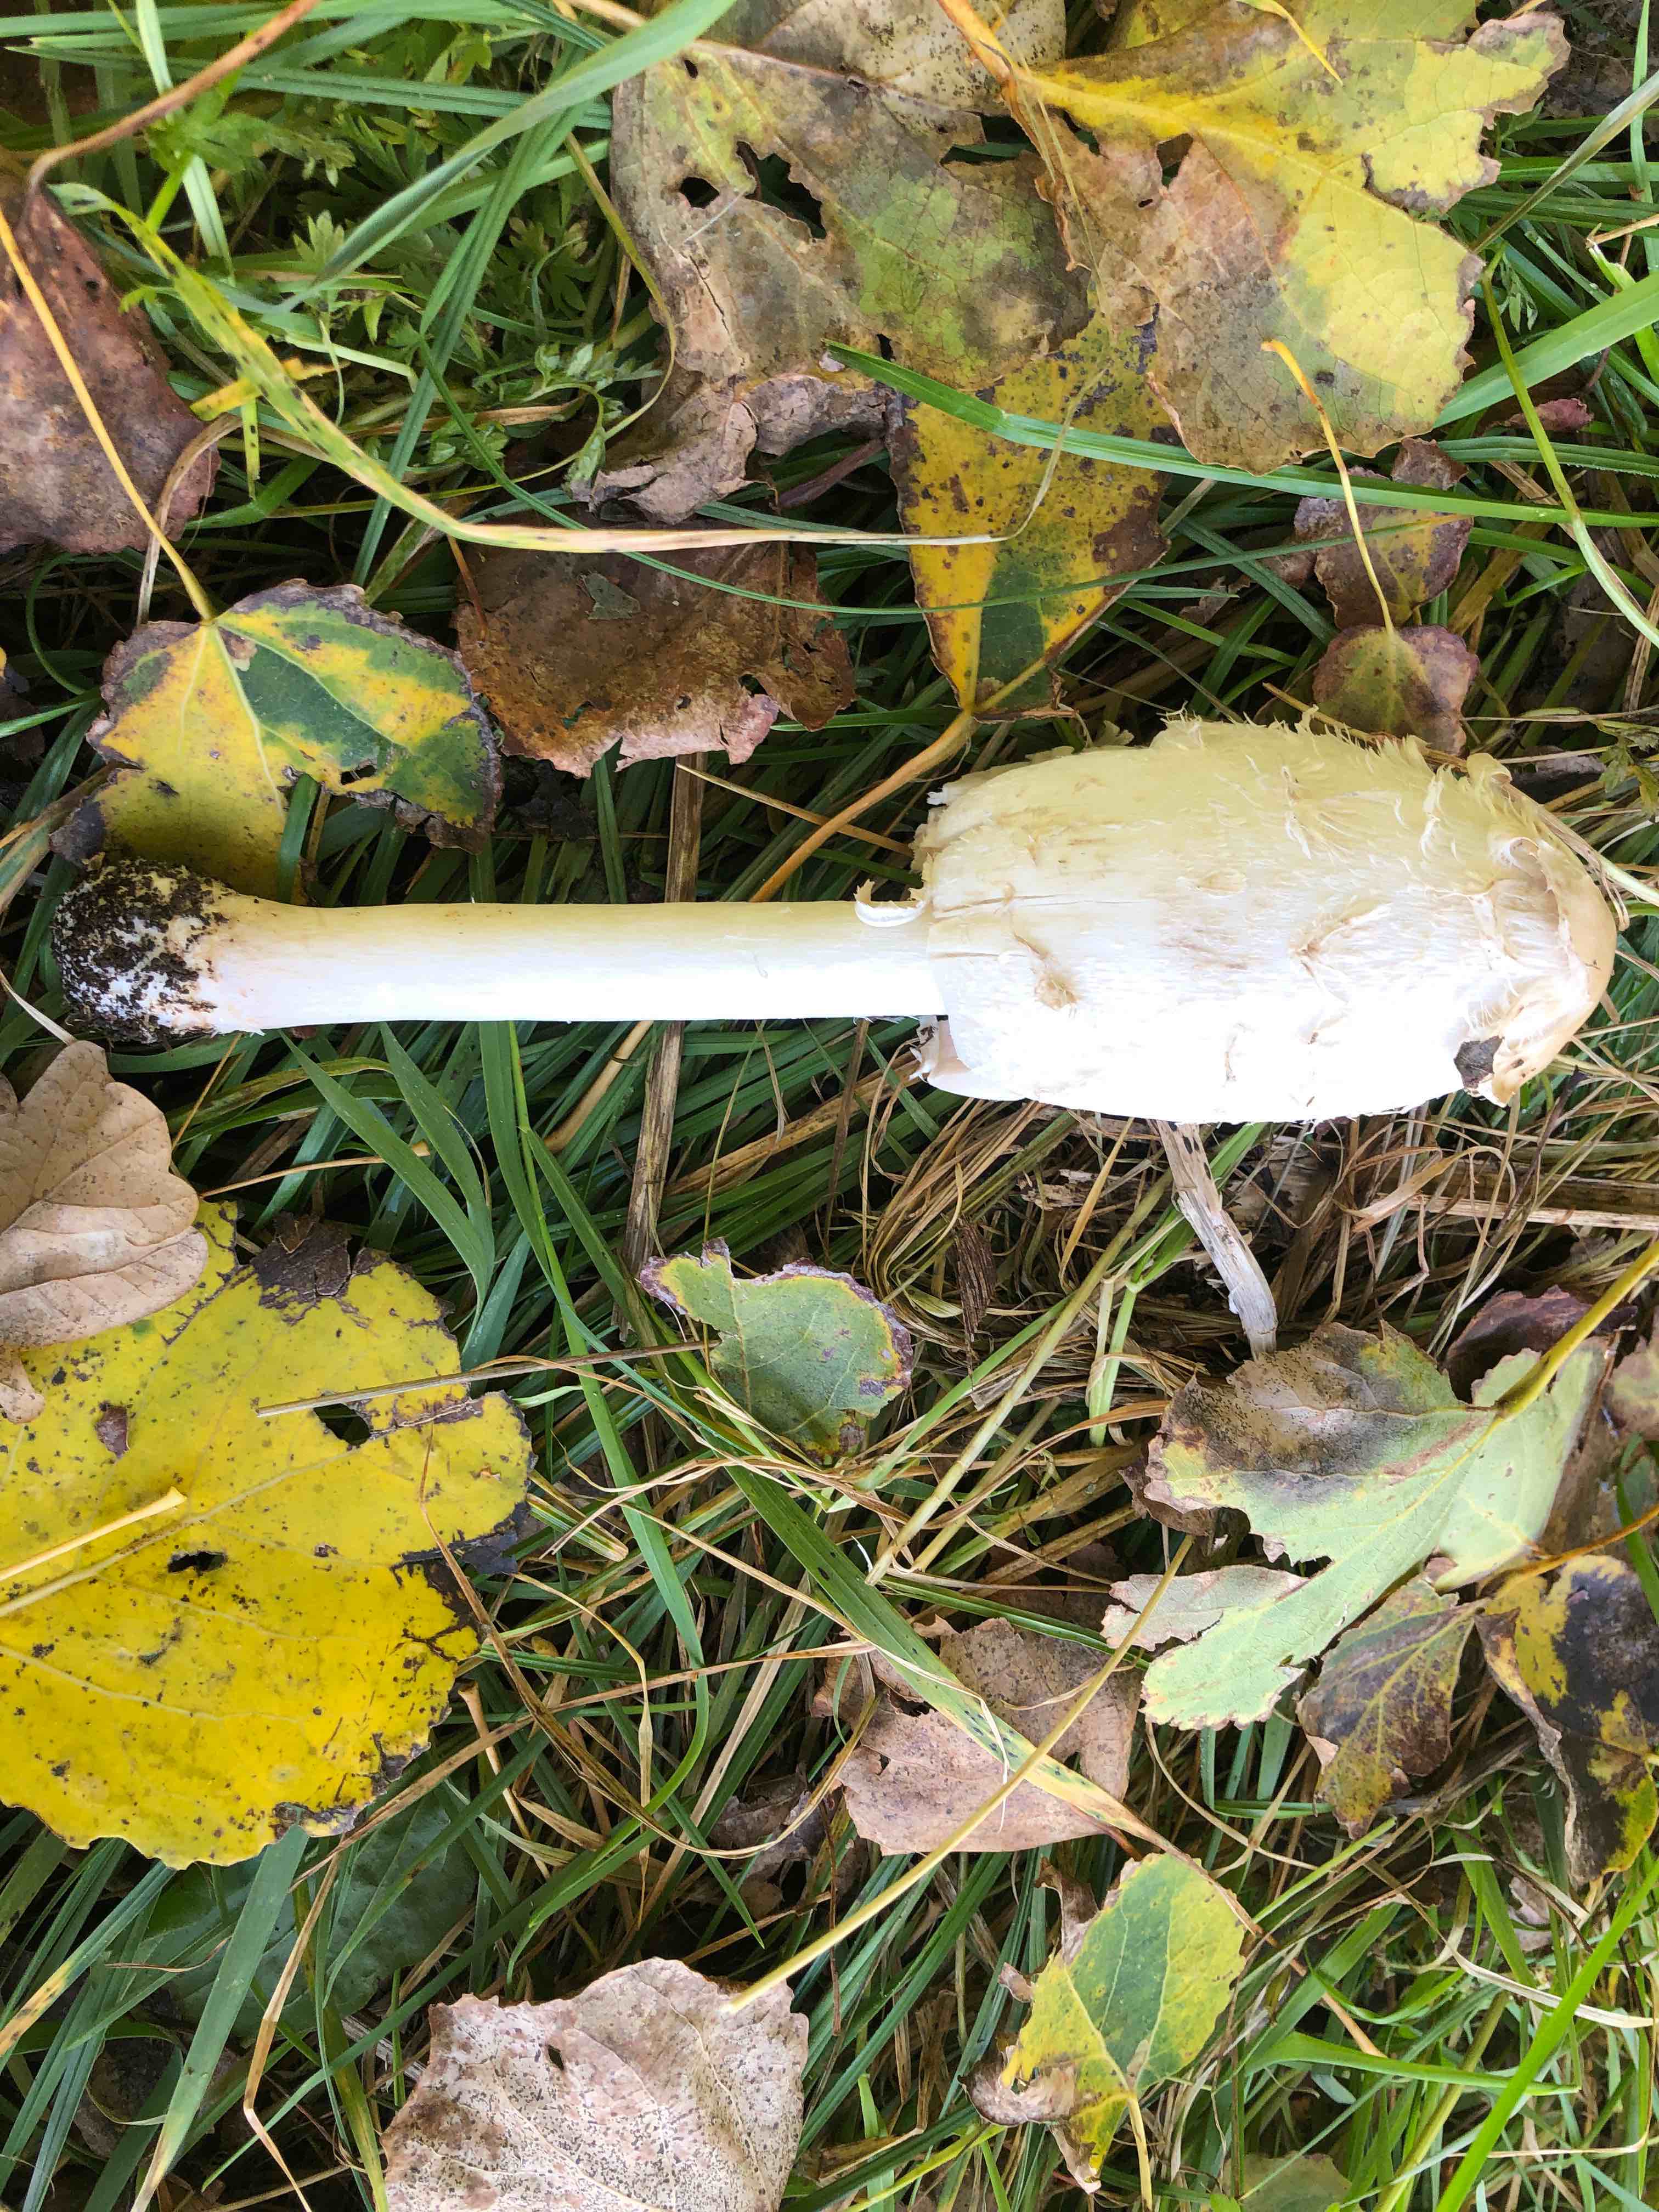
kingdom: Fungi
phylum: Basidiomycota
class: Agaricomycetes
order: Agaricales
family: Agaricaceae
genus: Coprinus
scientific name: Coprinus comatus
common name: stor parykhat
